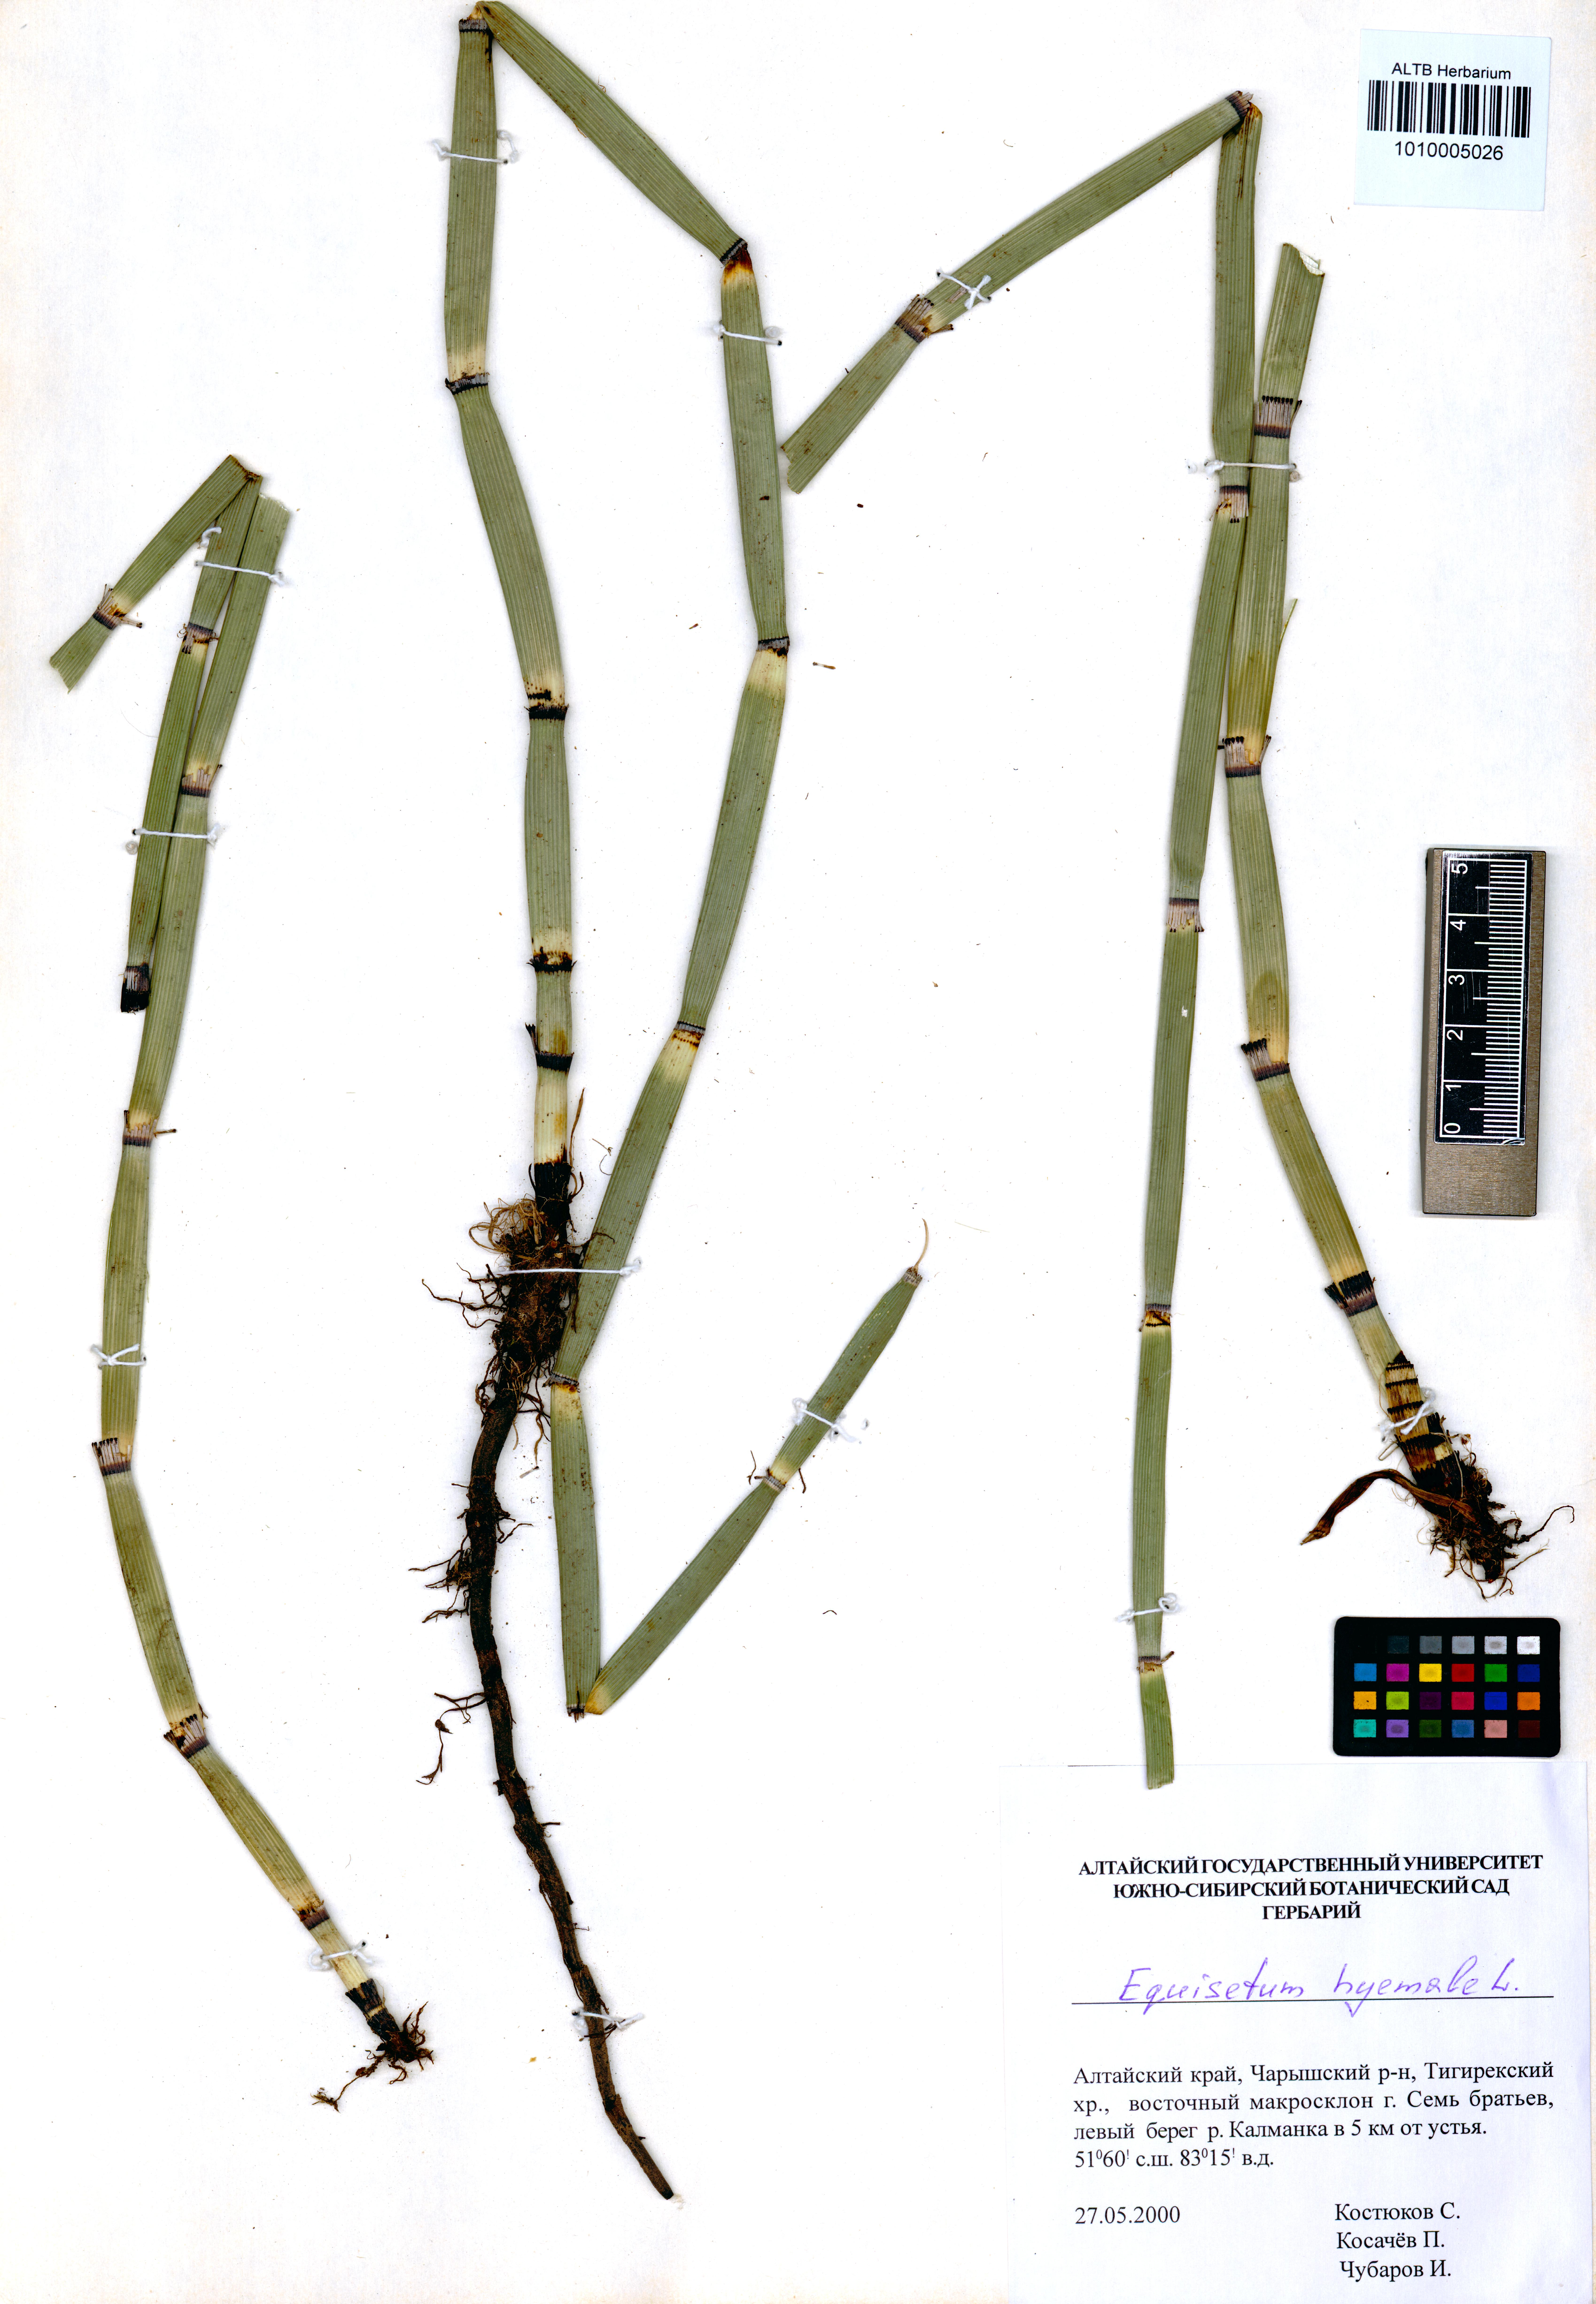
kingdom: Plantae
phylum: Tracheophyta
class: Polypodiopsida
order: Equisetales
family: Equisetaceae
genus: Equisetum
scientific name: Equisetum hyemale
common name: Rough horsetail
